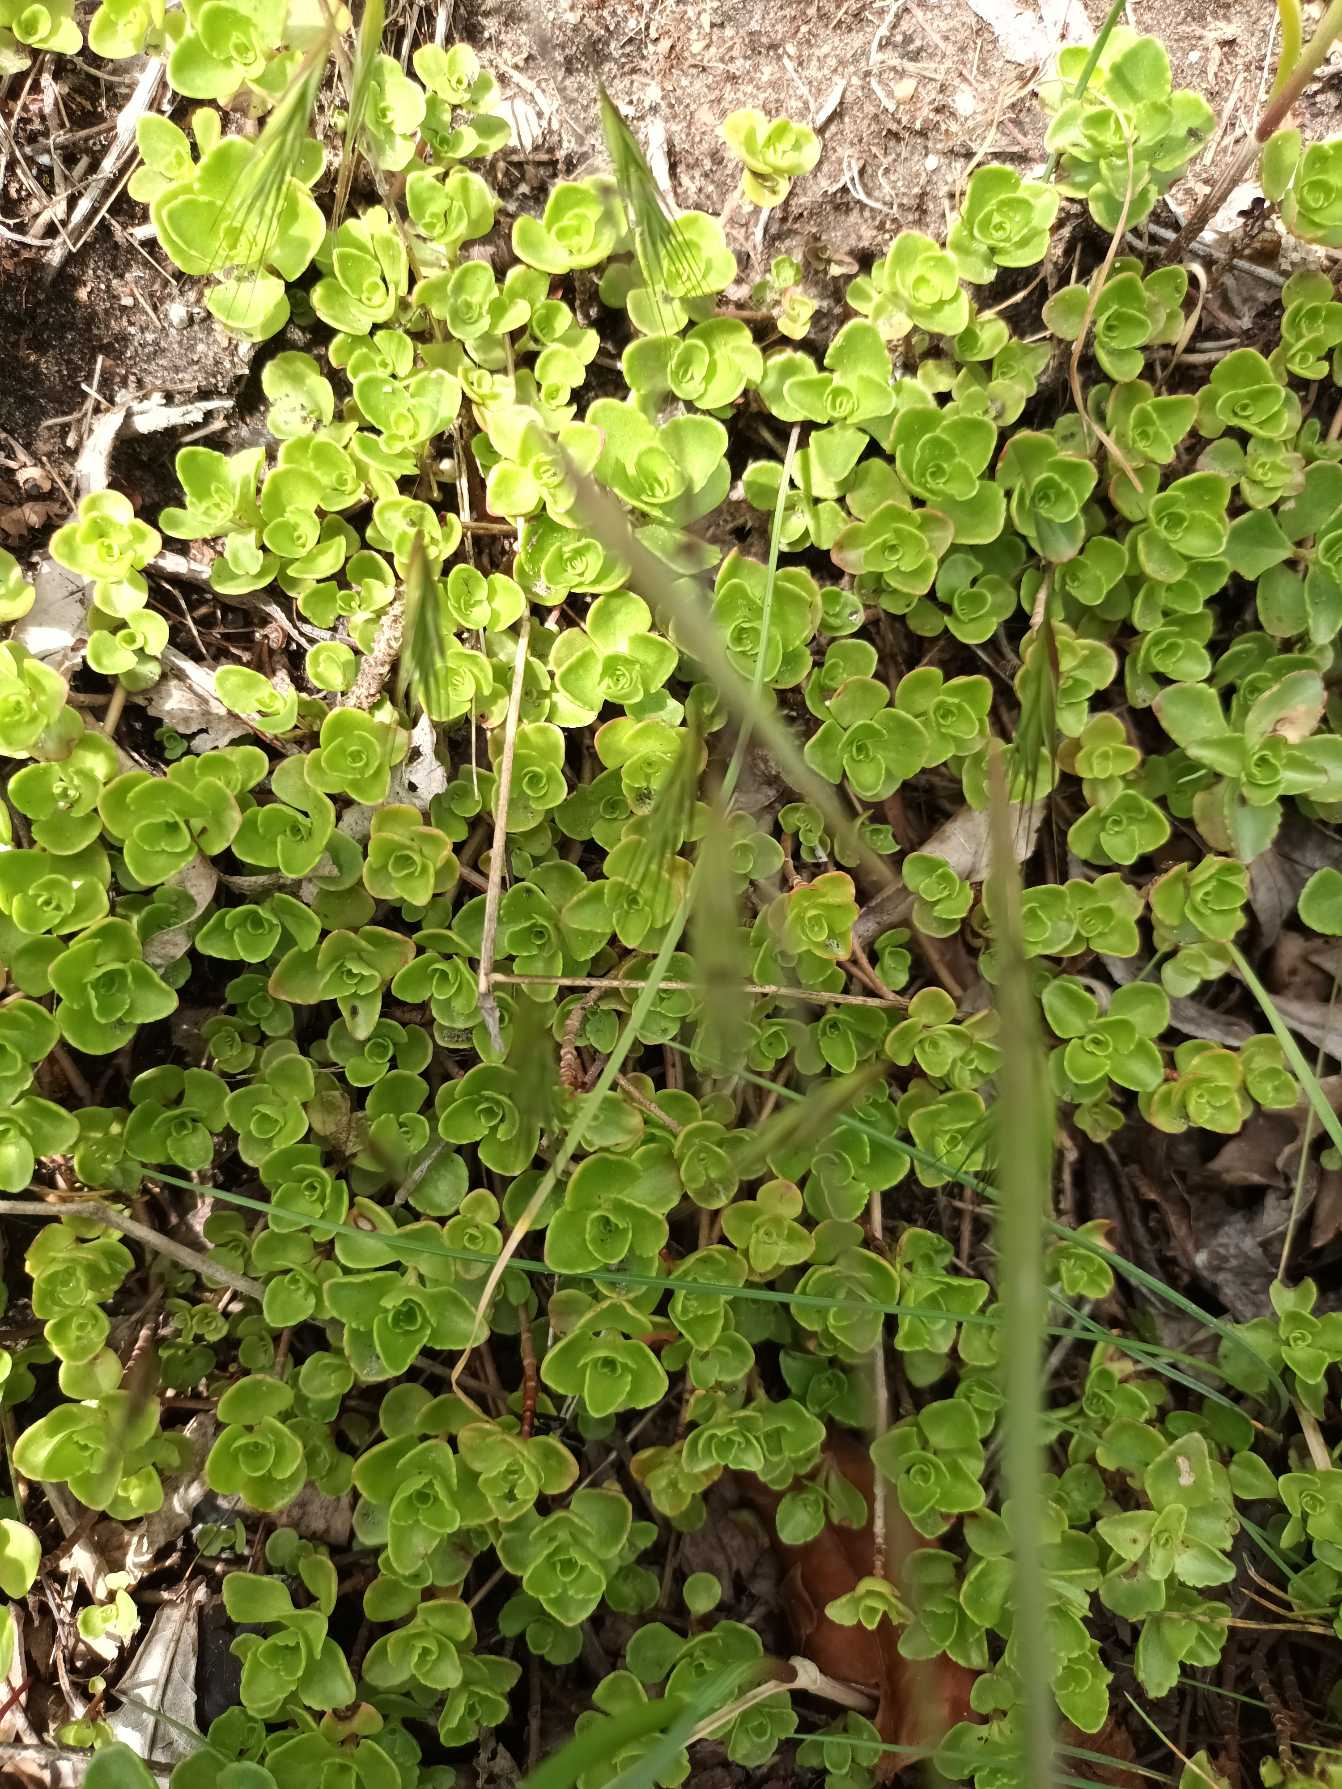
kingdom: Plantae
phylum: Tracheophyta
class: Magnoliopsida
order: Saxifragales
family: Crassulaceae
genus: Phedimus
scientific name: Phedimus spurius
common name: Rød stenurt
